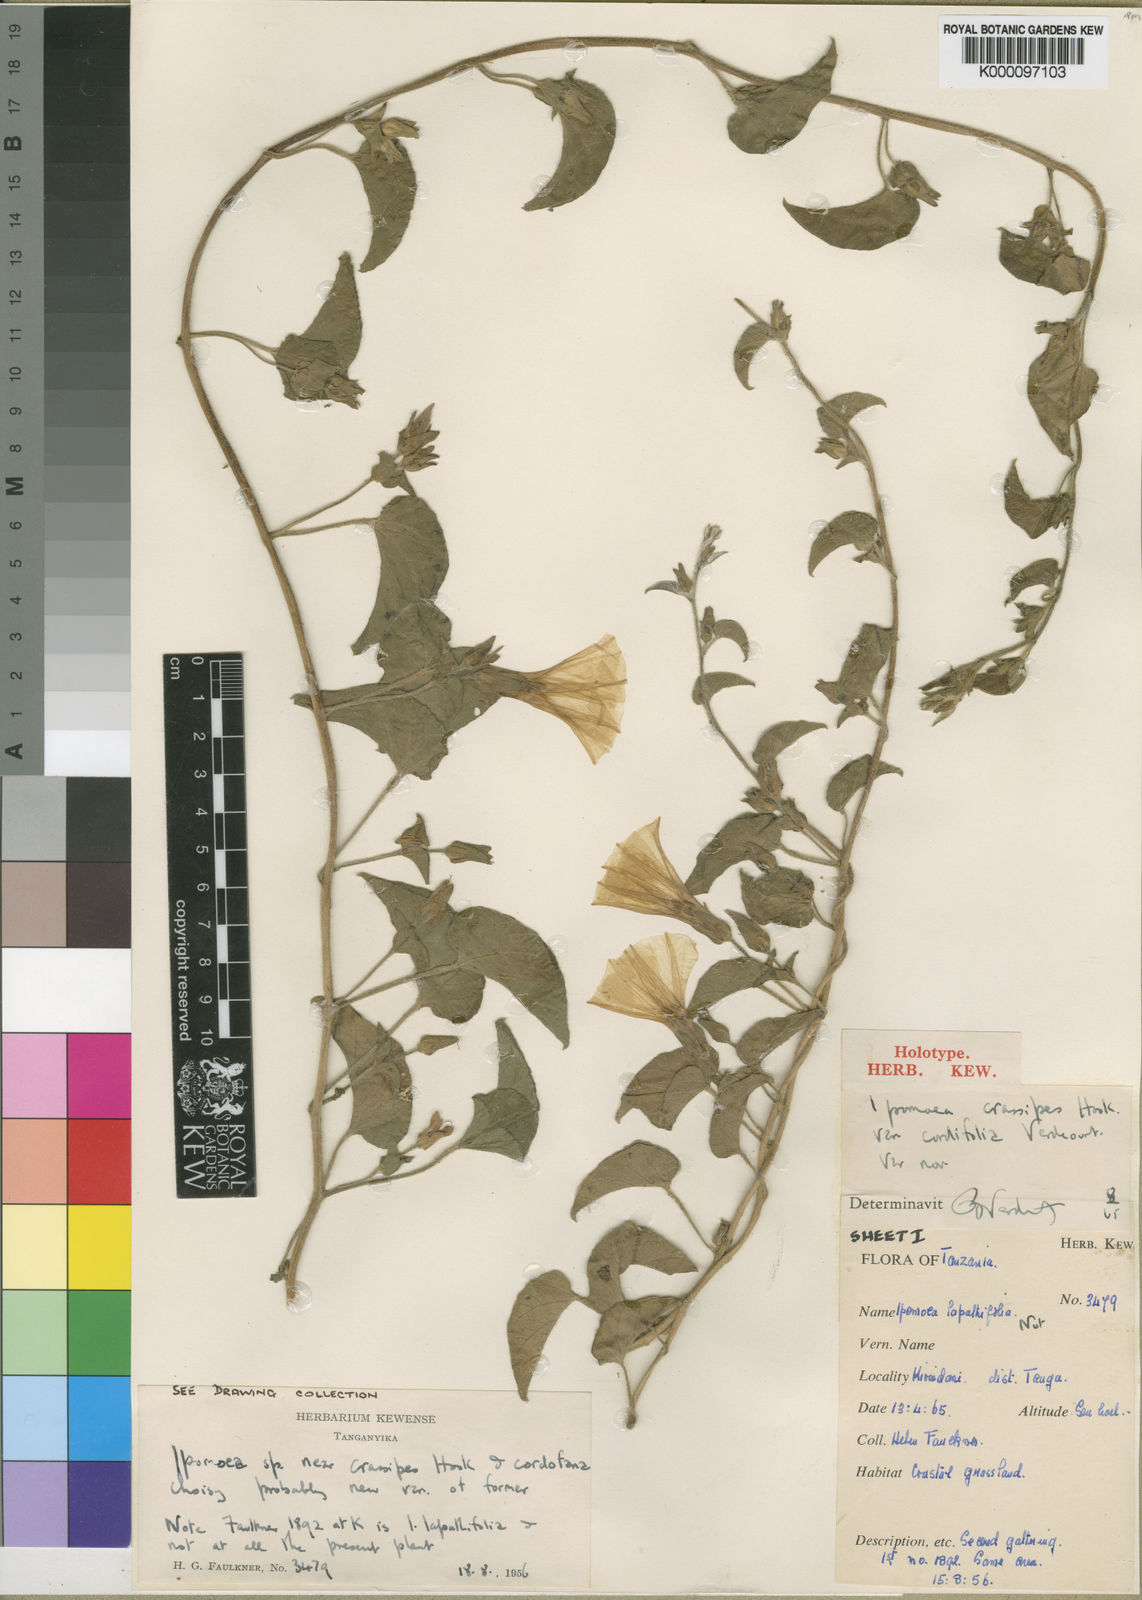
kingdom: Plantae
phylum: Tracheophyta
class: Magnoliopsida
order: Solanales
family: Convolvulaceae
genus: Ipomoea
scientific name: Ipomoea crassipes
